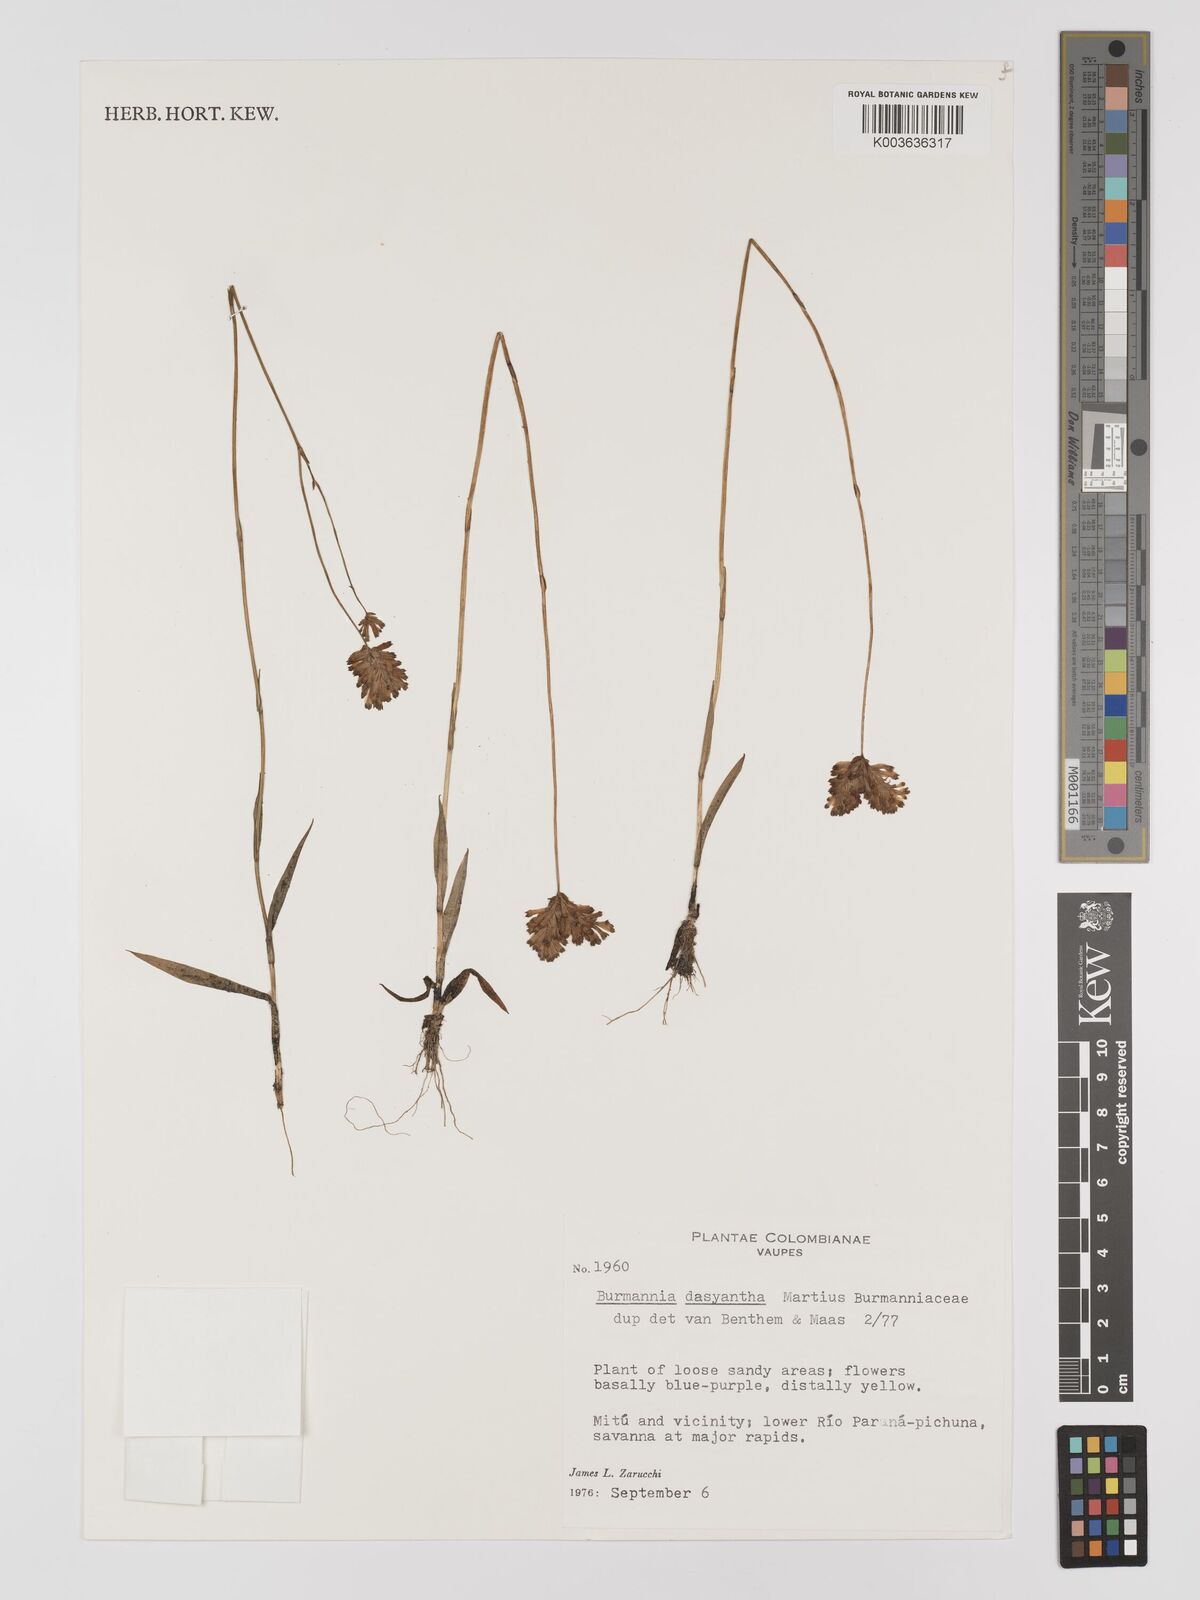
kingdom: Plantae
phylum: Tracheophyta
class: Liliopsida
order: Dioscoreales
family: Burmanniaceae
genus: Burmannia
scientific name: Burmannia dasyantha
